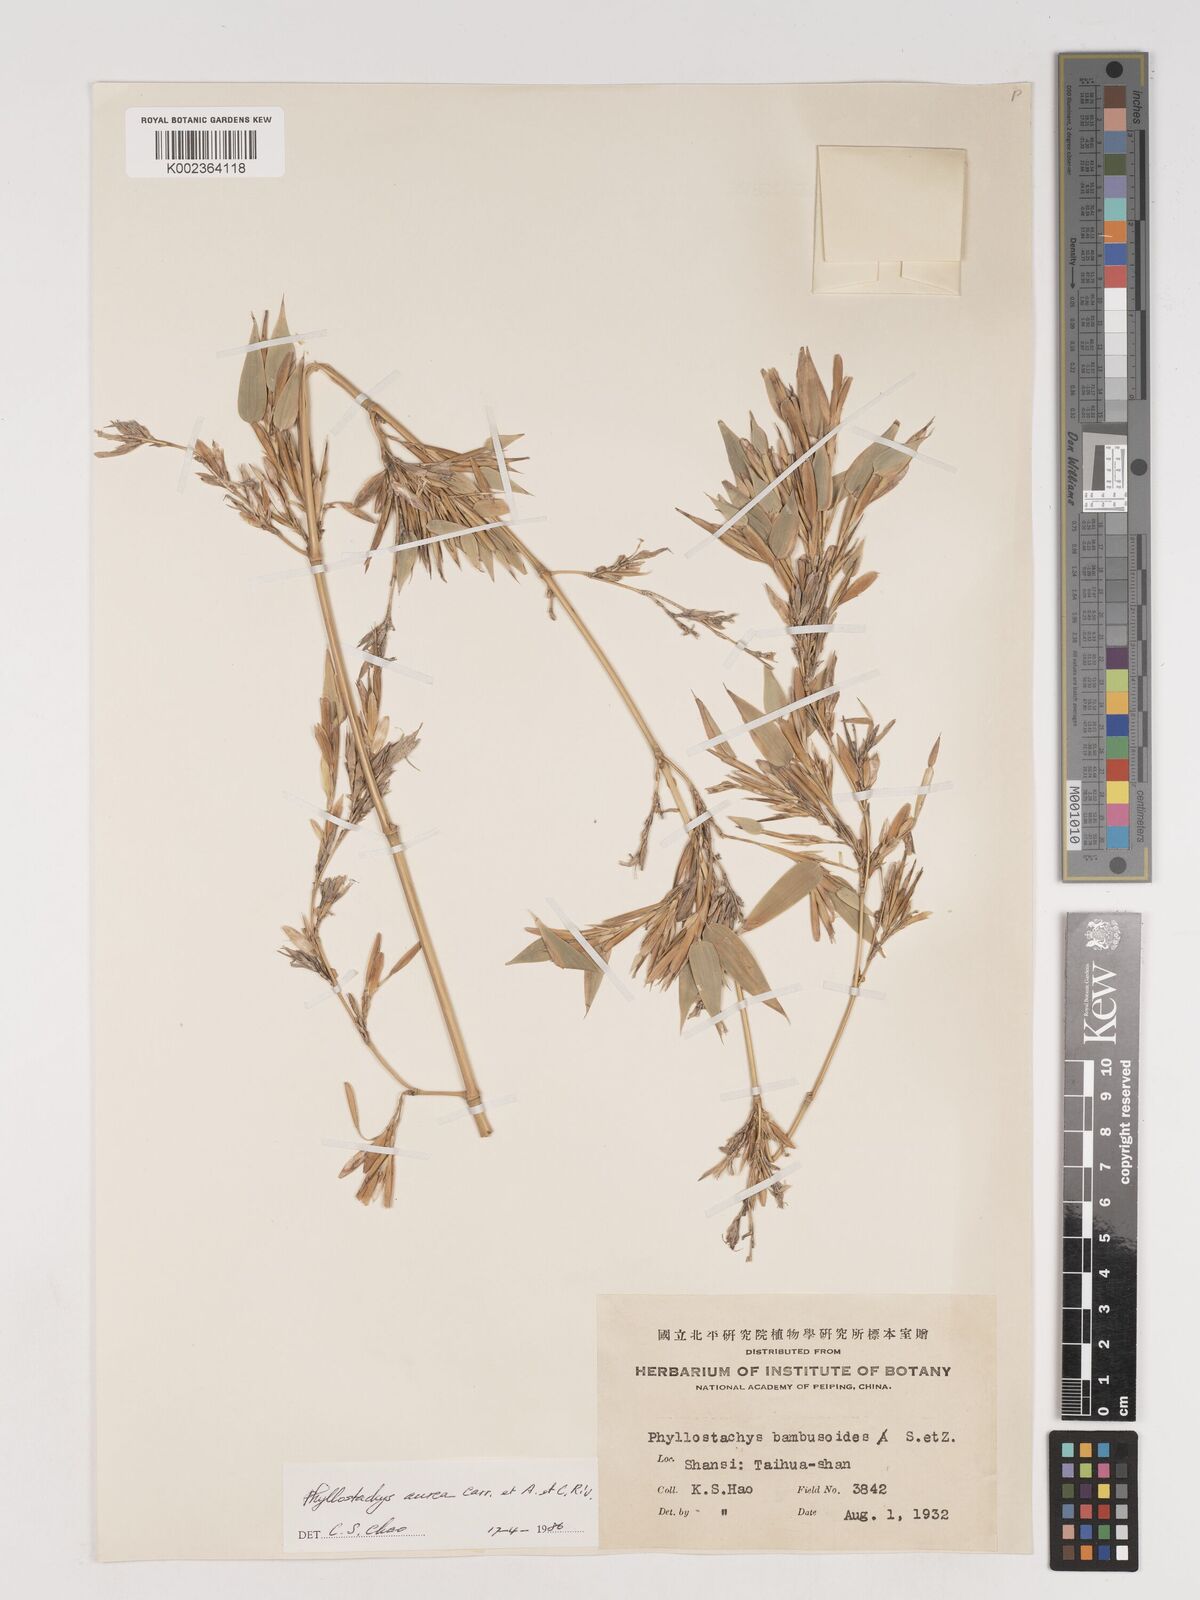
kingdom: Plantae
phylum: Tracheophyta
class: Liliopsida
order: Poales
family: Poaceae
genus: Phyllostachys
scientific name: Phyllostachys aurea
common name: Golden bamboo
